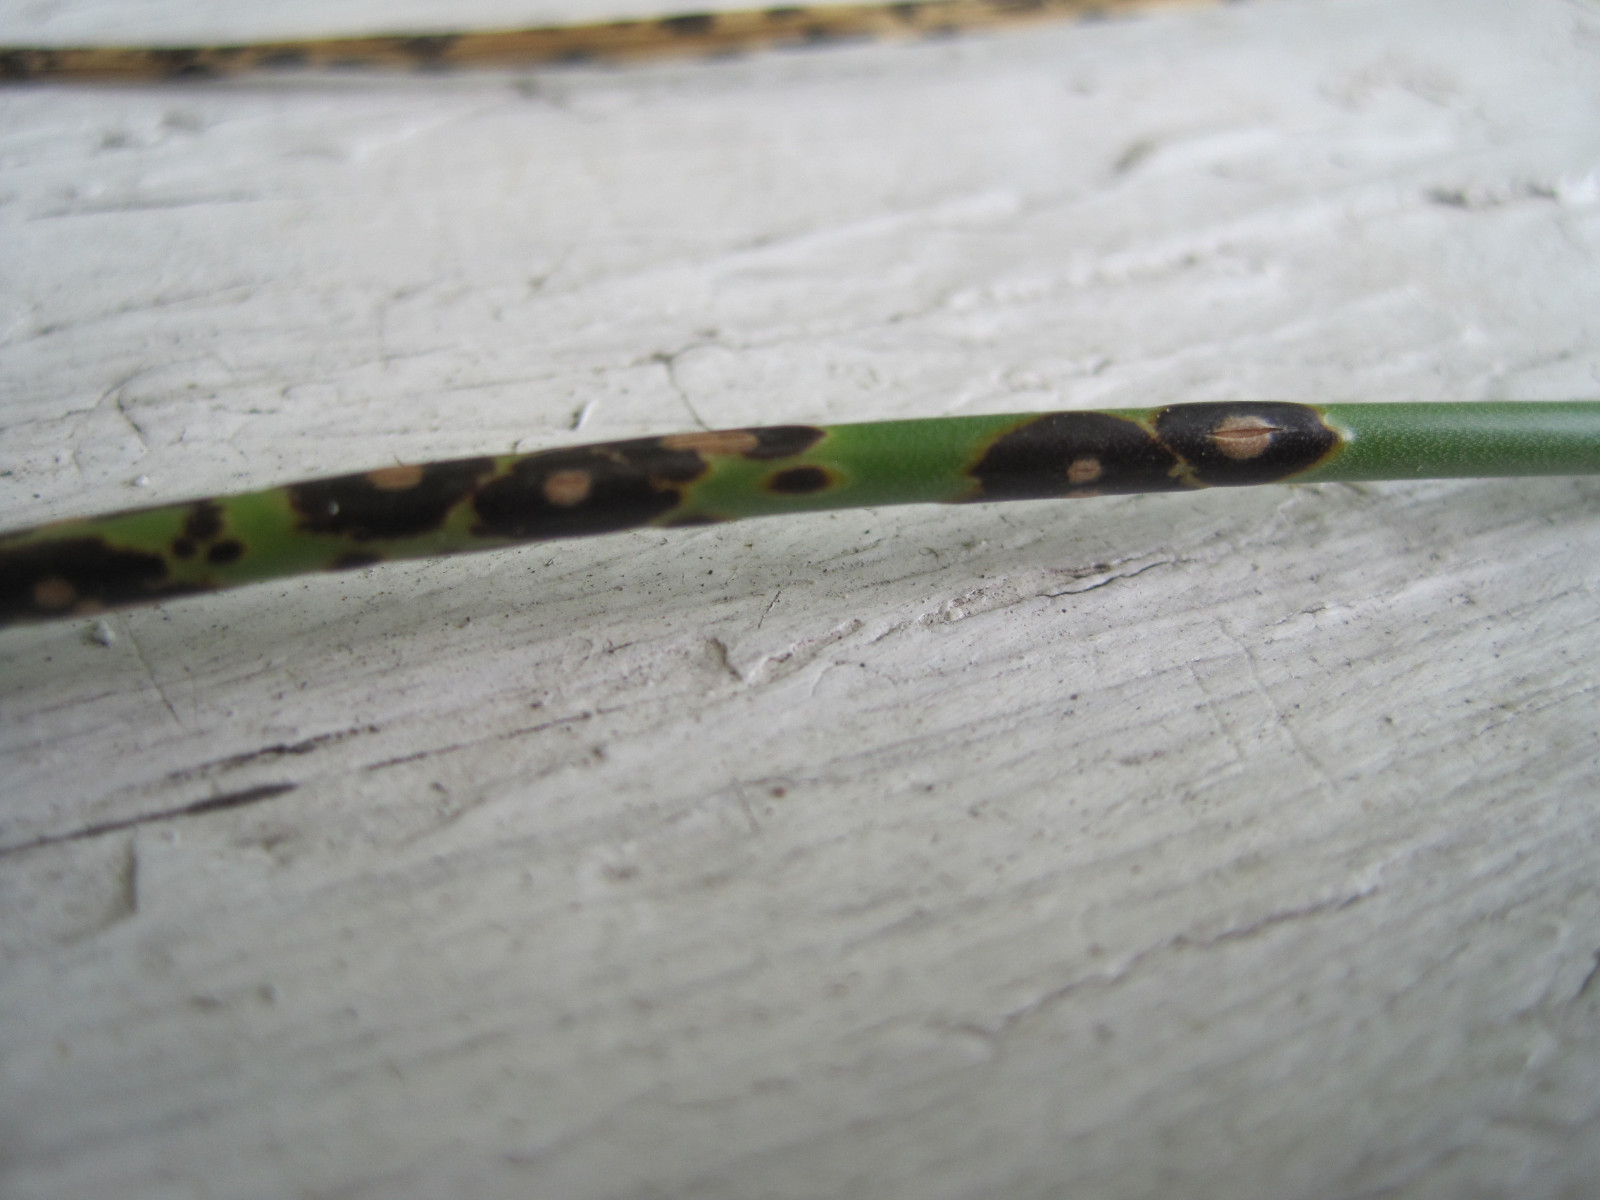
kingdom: Fungi
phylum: Basidiomycota
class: Pucciniomycetes
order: Pucciniales
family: Pucciniaceae
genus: Puccinia
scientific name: Puccinia porri
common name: Allium rust
